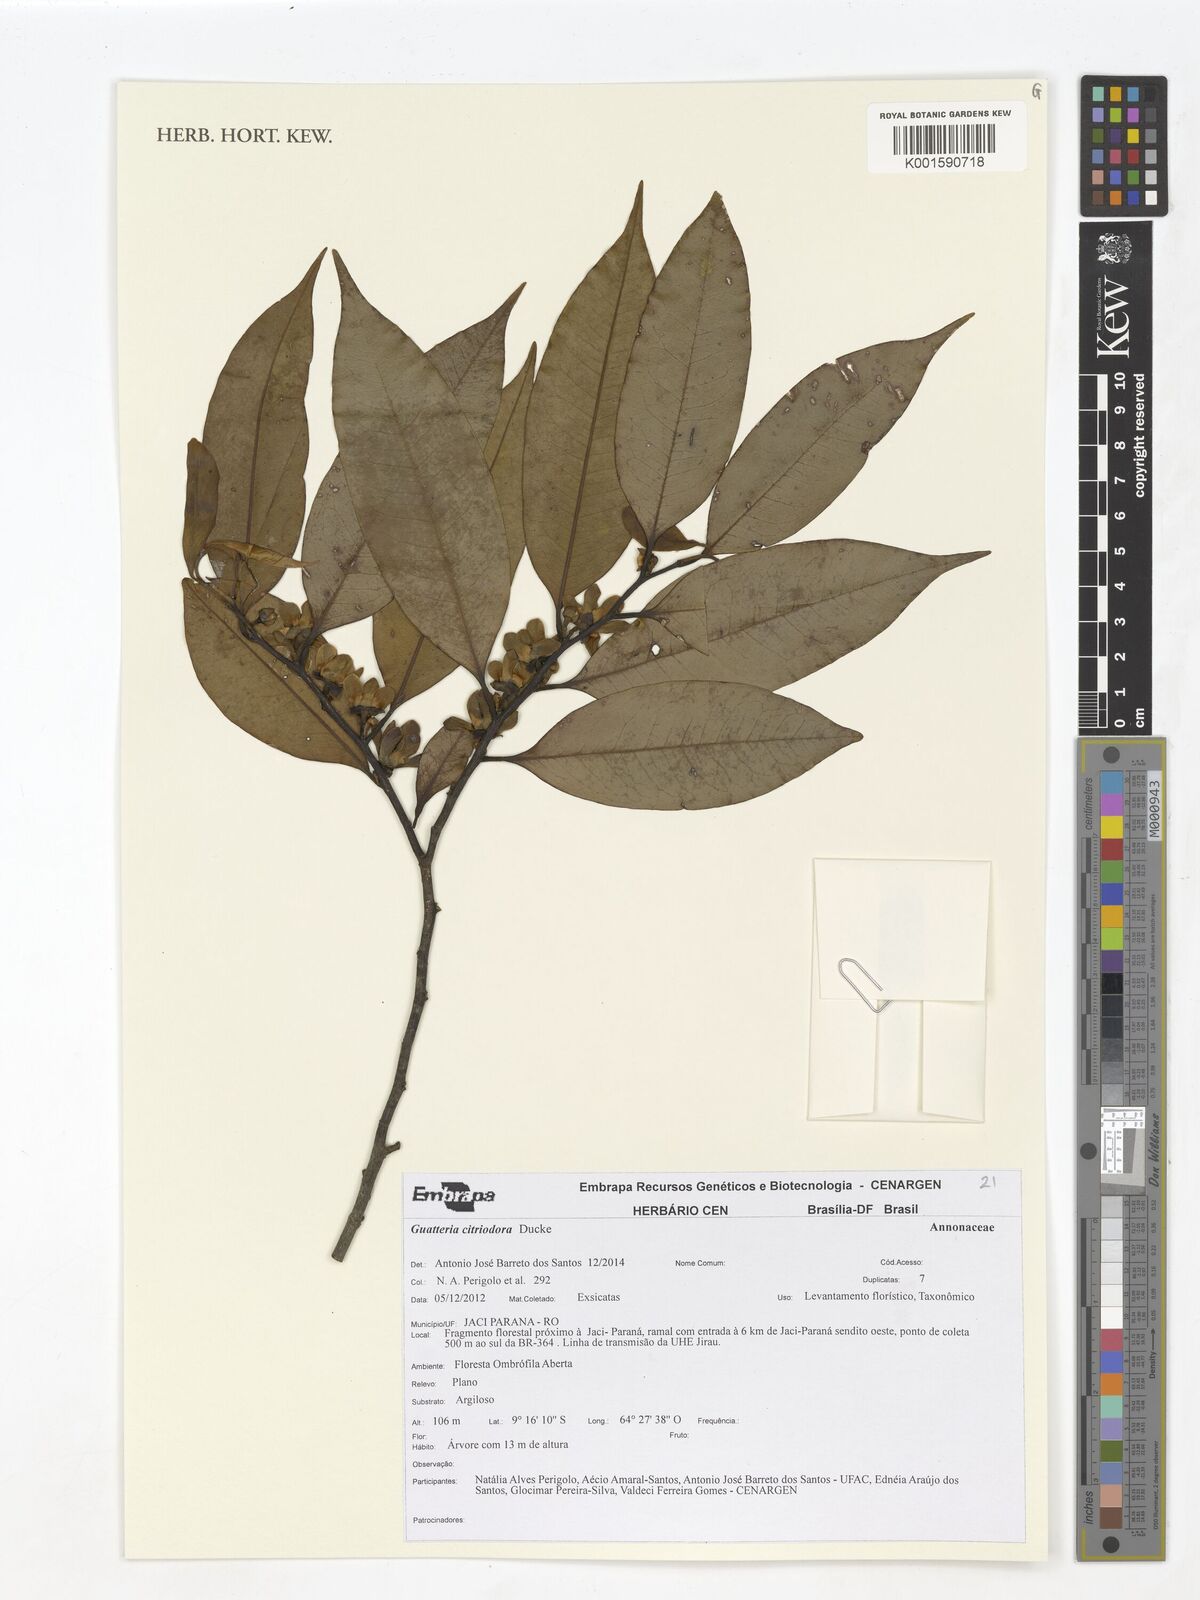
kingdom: Plantae
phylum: Tracheophyta
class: Magnoliopsida
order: Magnoliales
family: Annonaceae
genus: Guatteria
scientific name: Guatteria citriodora
